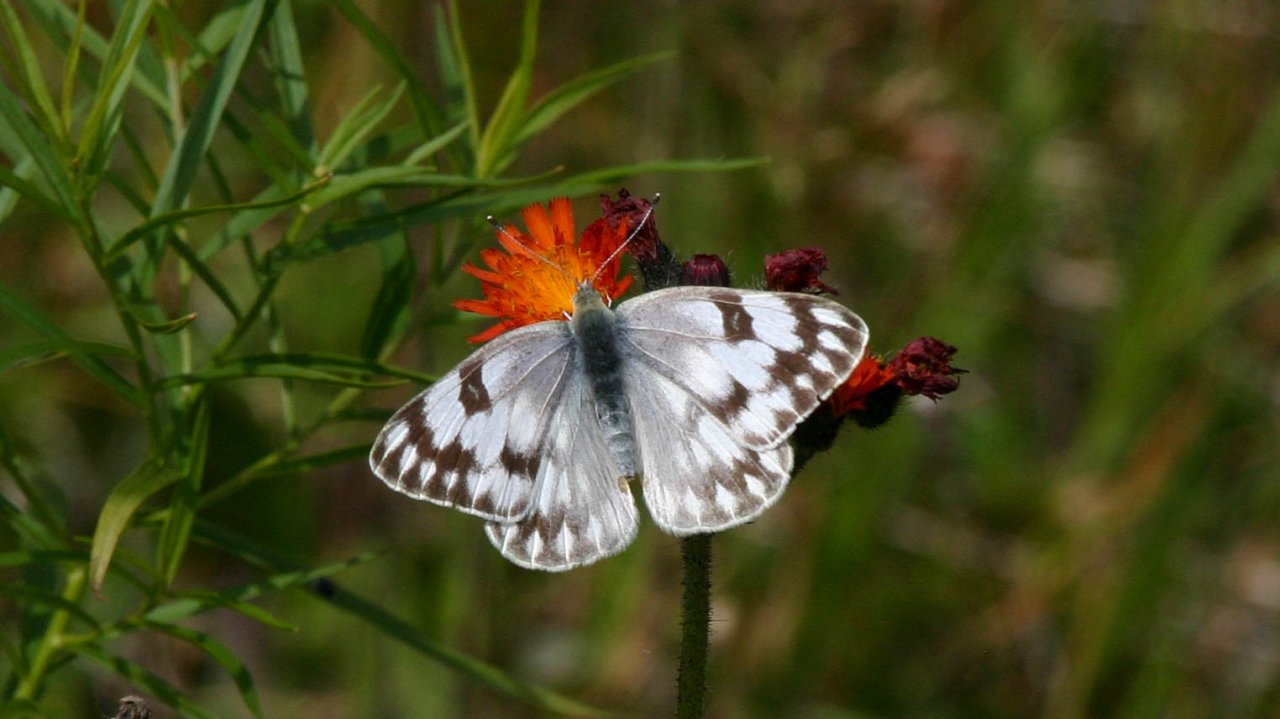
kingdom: Animalia
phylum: Arthropoda
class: Insecta
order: Lepidoptera
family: Pieridae
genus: Pontia
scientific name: Pontia protodice
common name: Checkered White
